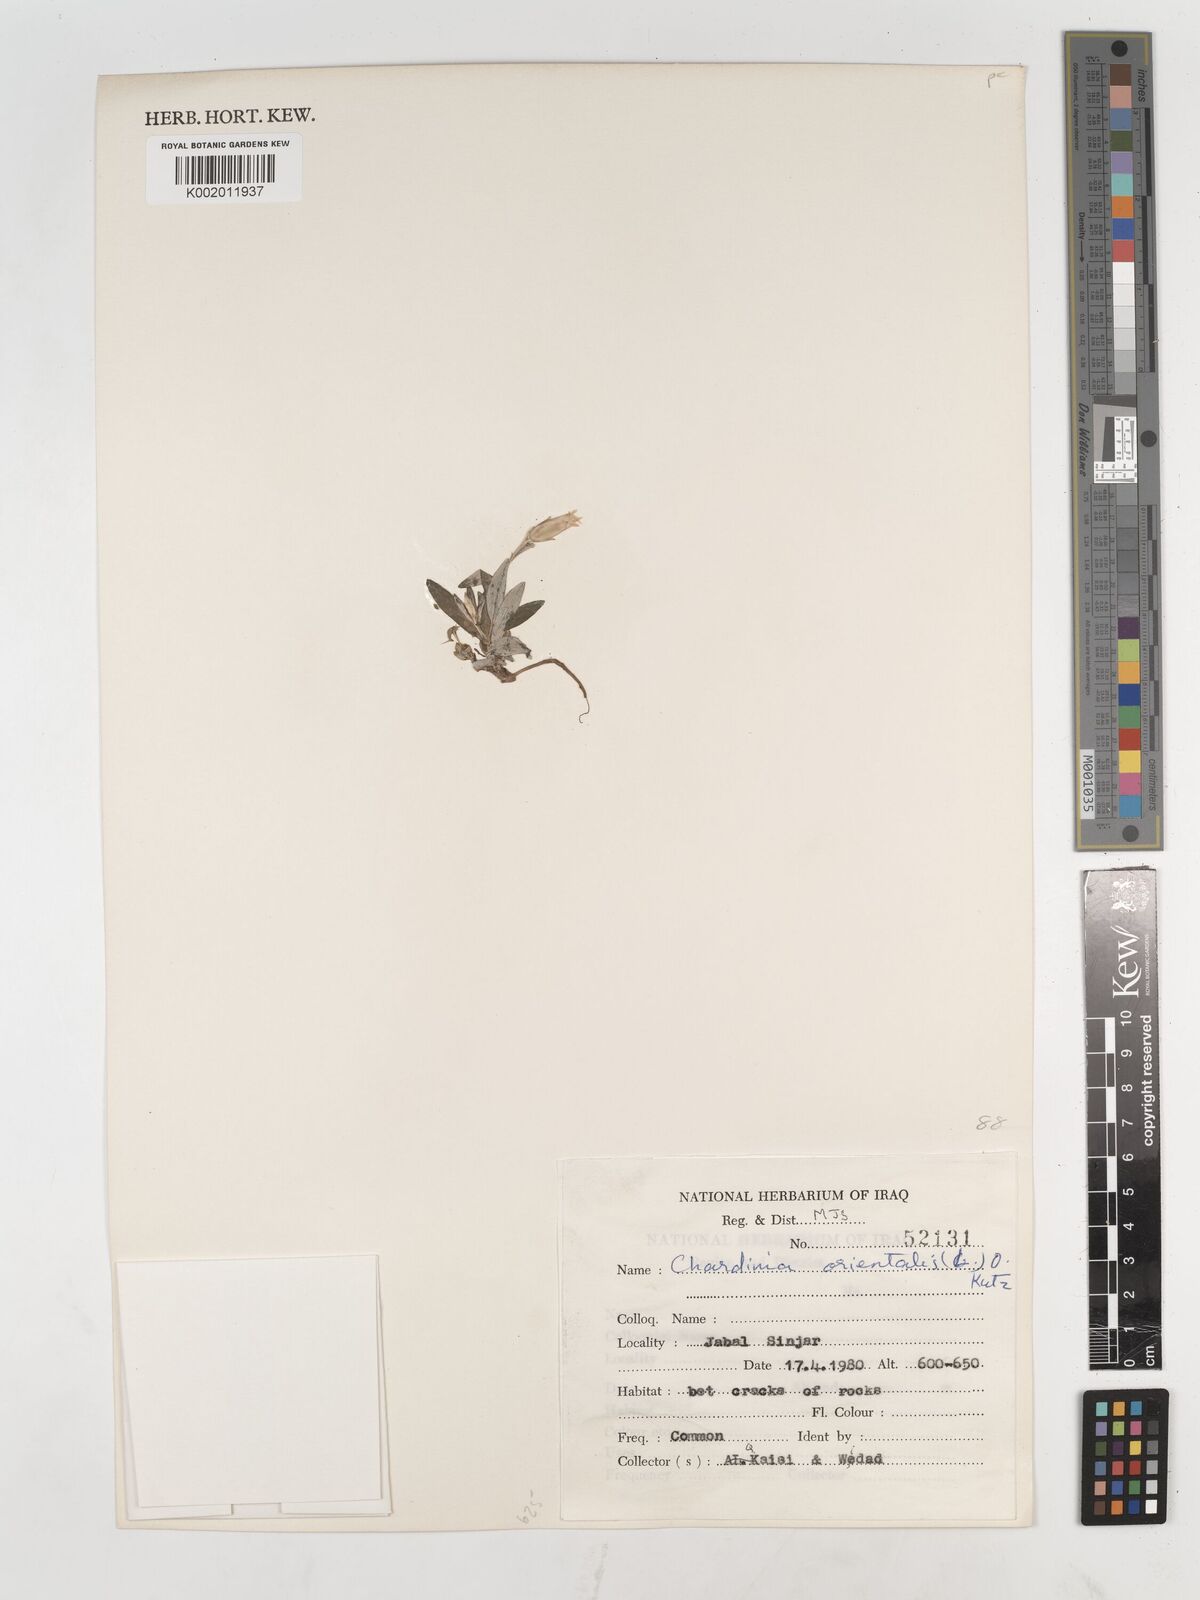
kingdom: Plantae
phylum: Tracheophyta
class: Magnoliopsida
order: Asterales
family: Asteraceae
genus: Chardinia
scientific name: Chardinia orientalis
